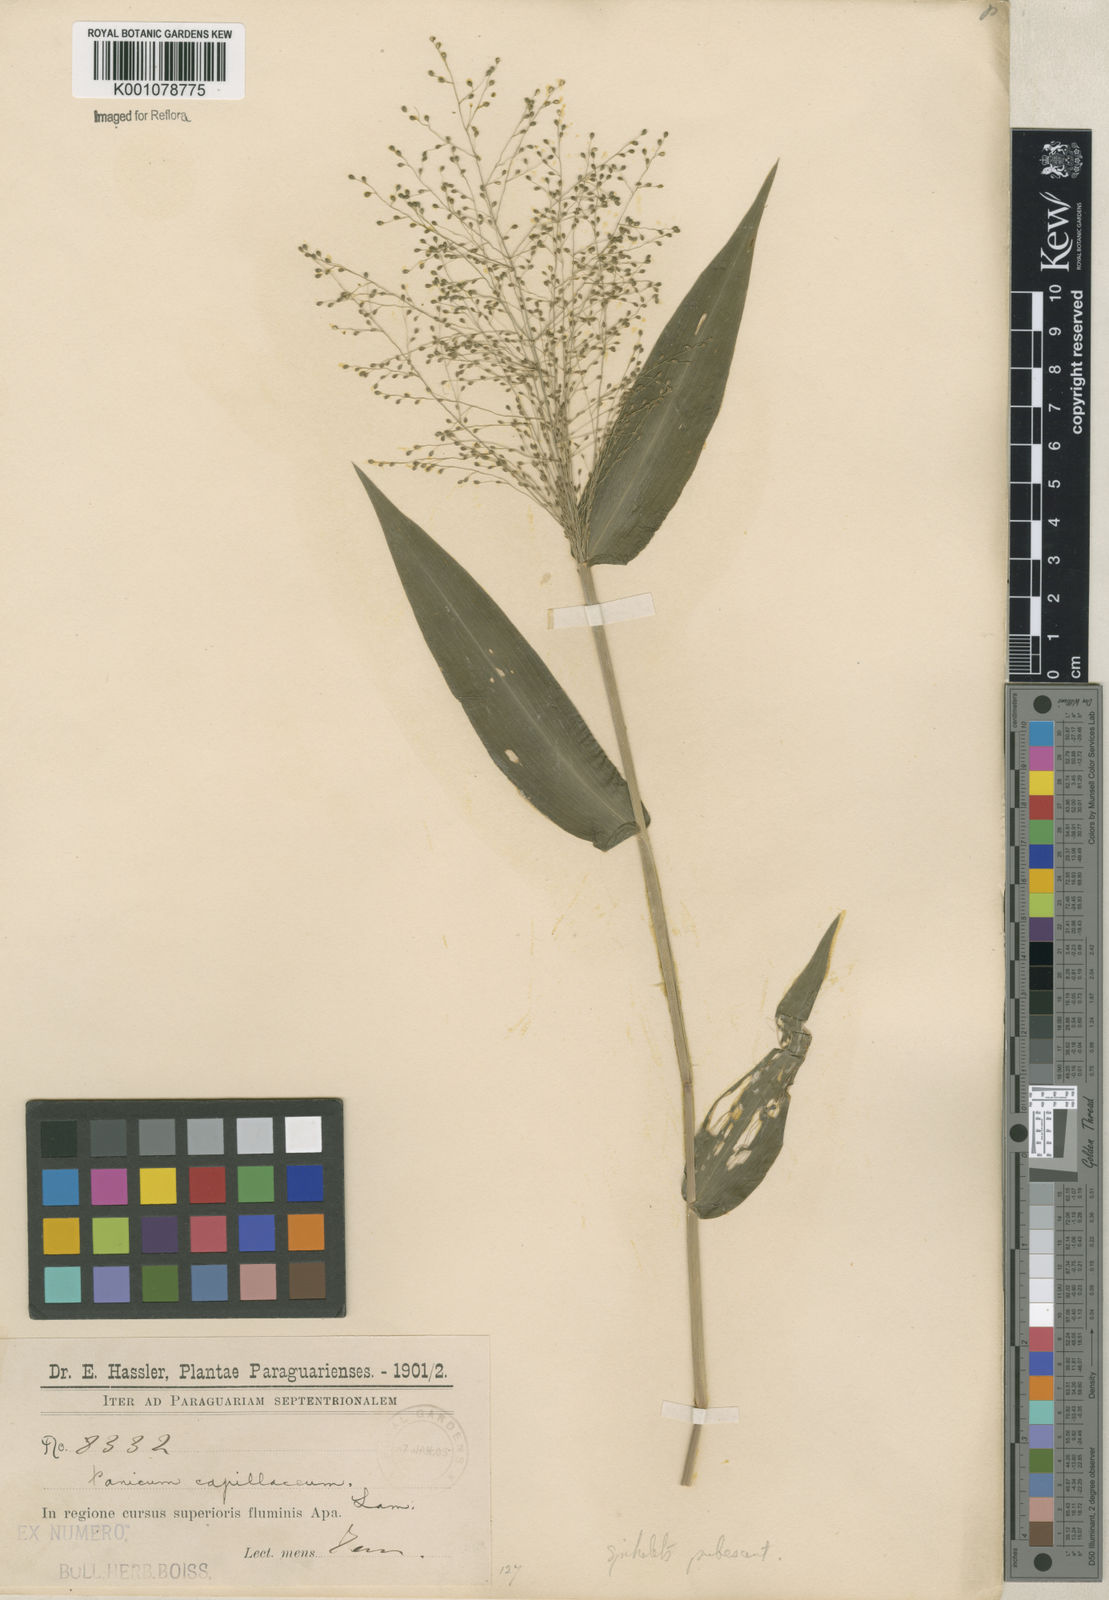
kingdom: Plantae
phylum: Tracheophyta
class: Liliopsida
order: Poales
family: Poaceae
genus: Panicum
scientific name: Panicum
